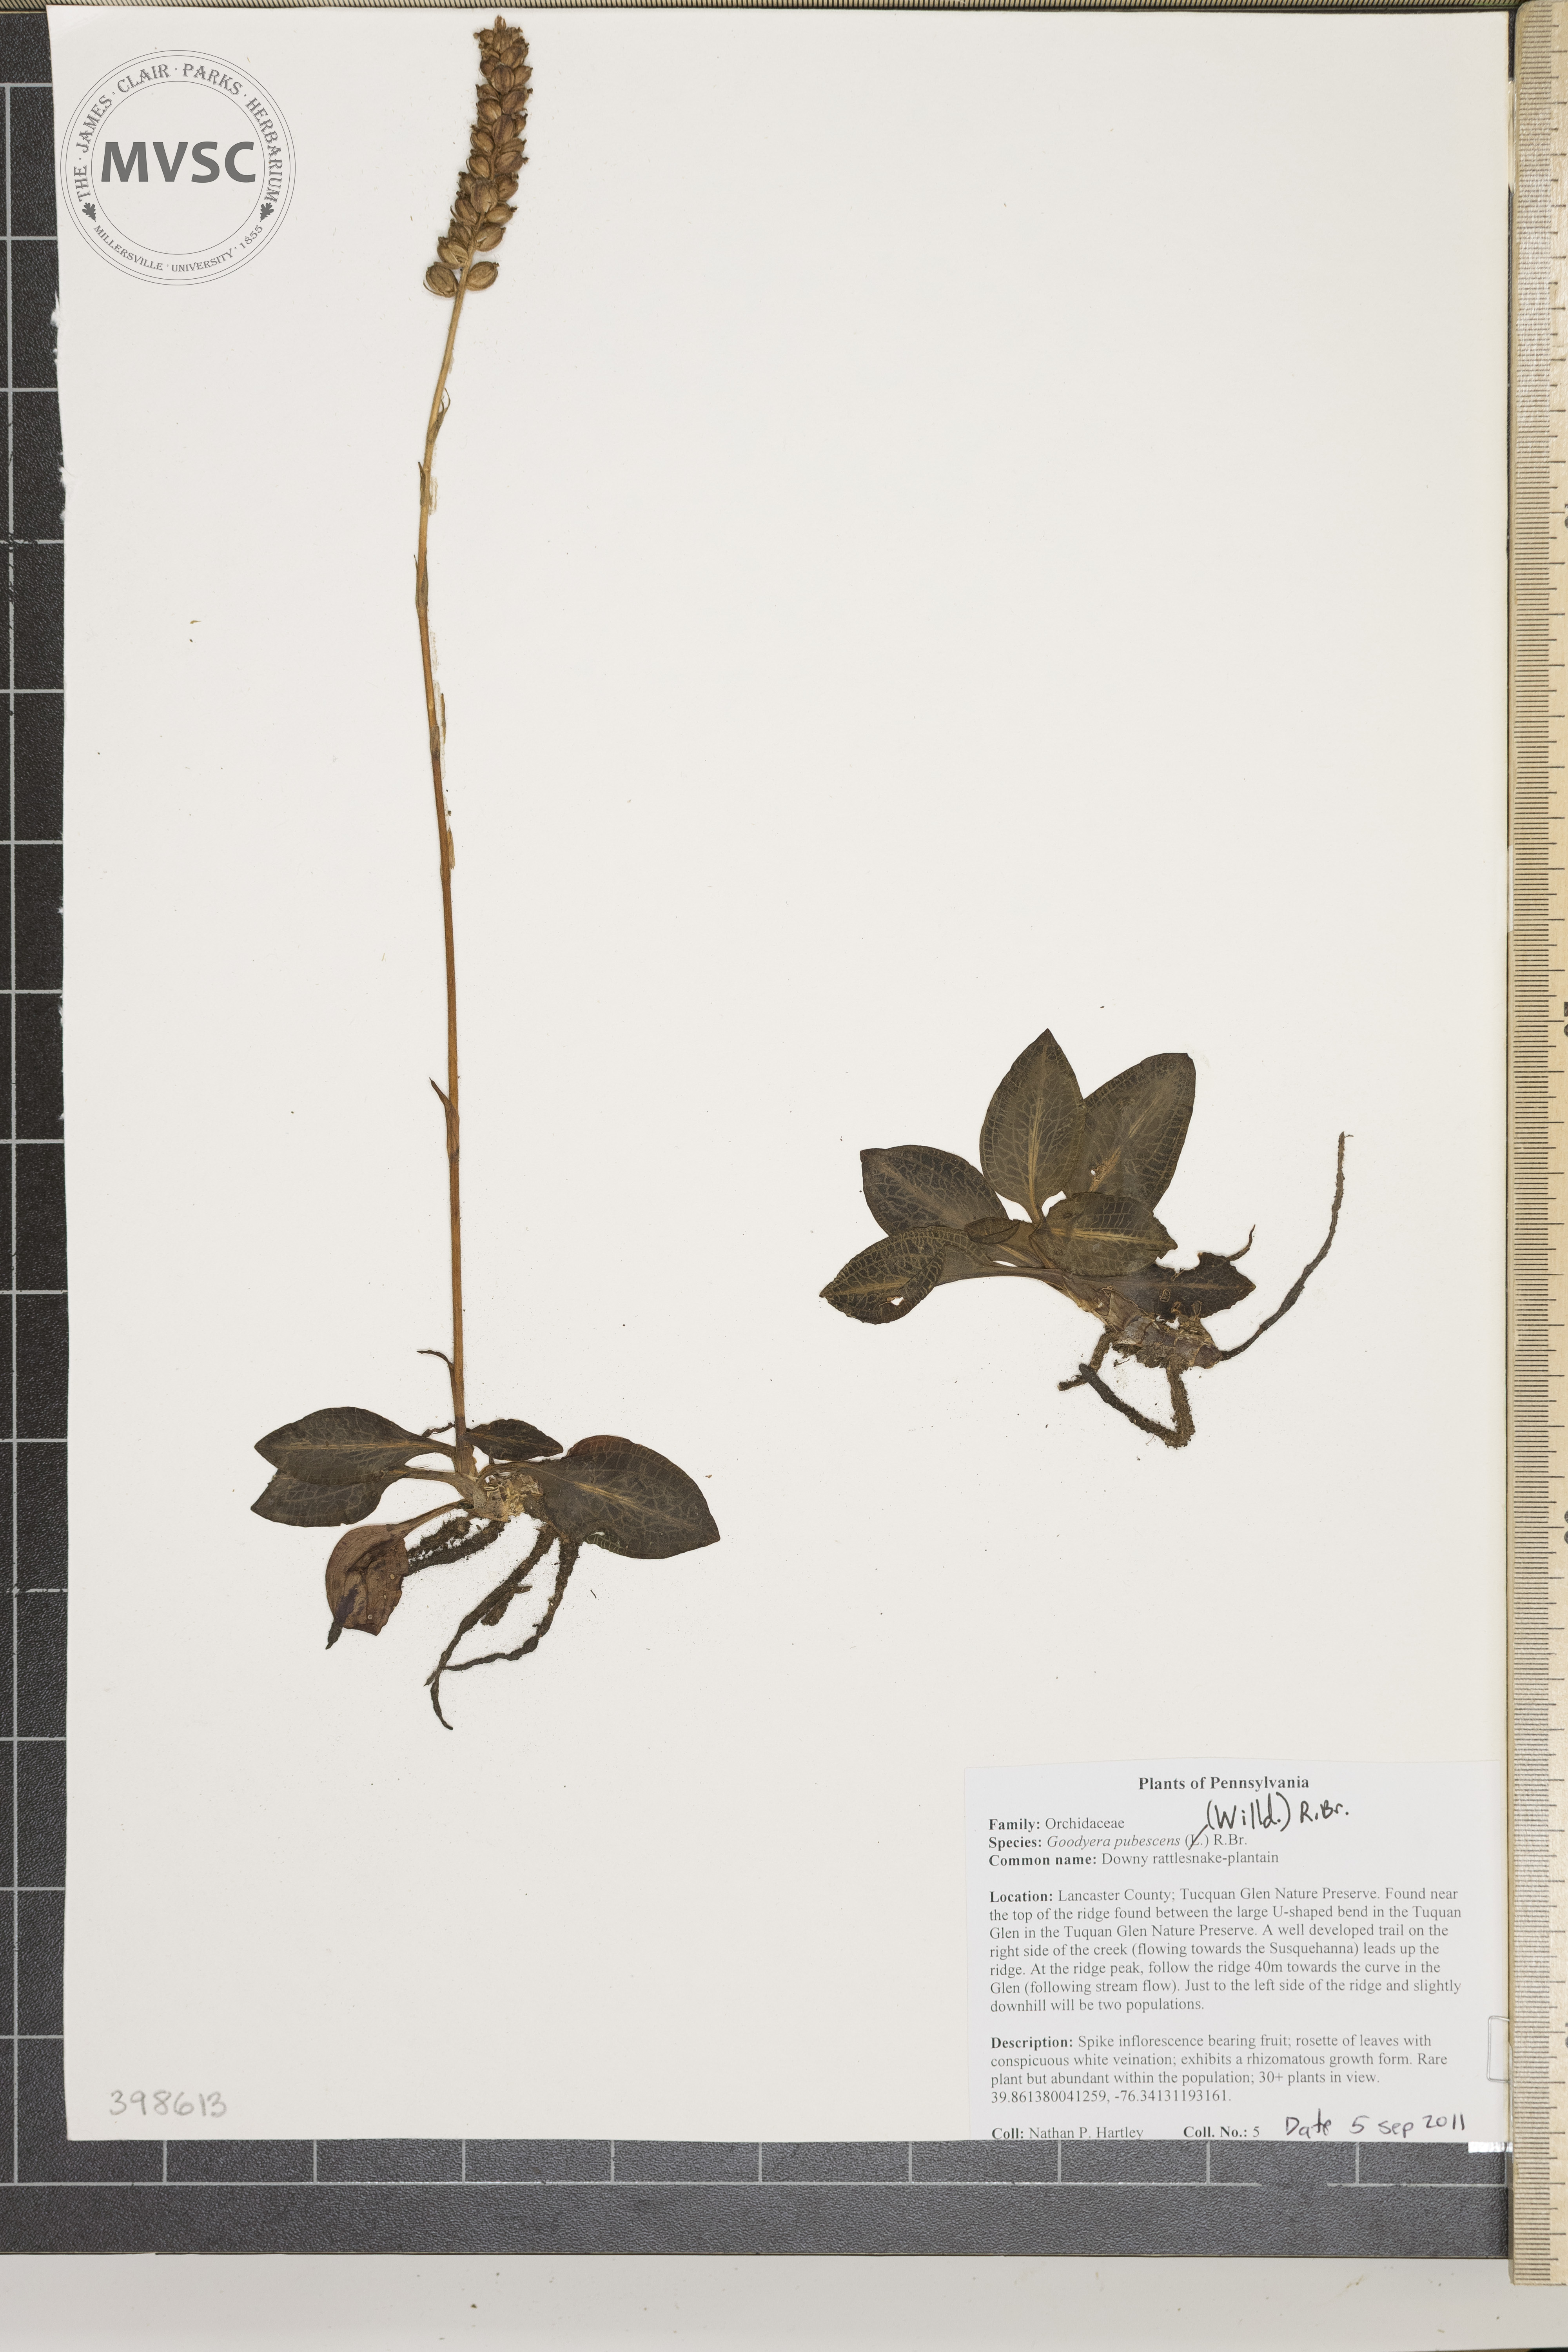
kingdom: Plantae
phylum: Tracheophyta
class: Liliopsida
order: Asparagales
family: Orchidaceae
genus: Goodyera
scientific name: Goodyera pubescens
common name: Downy rattlesnake-plantain
